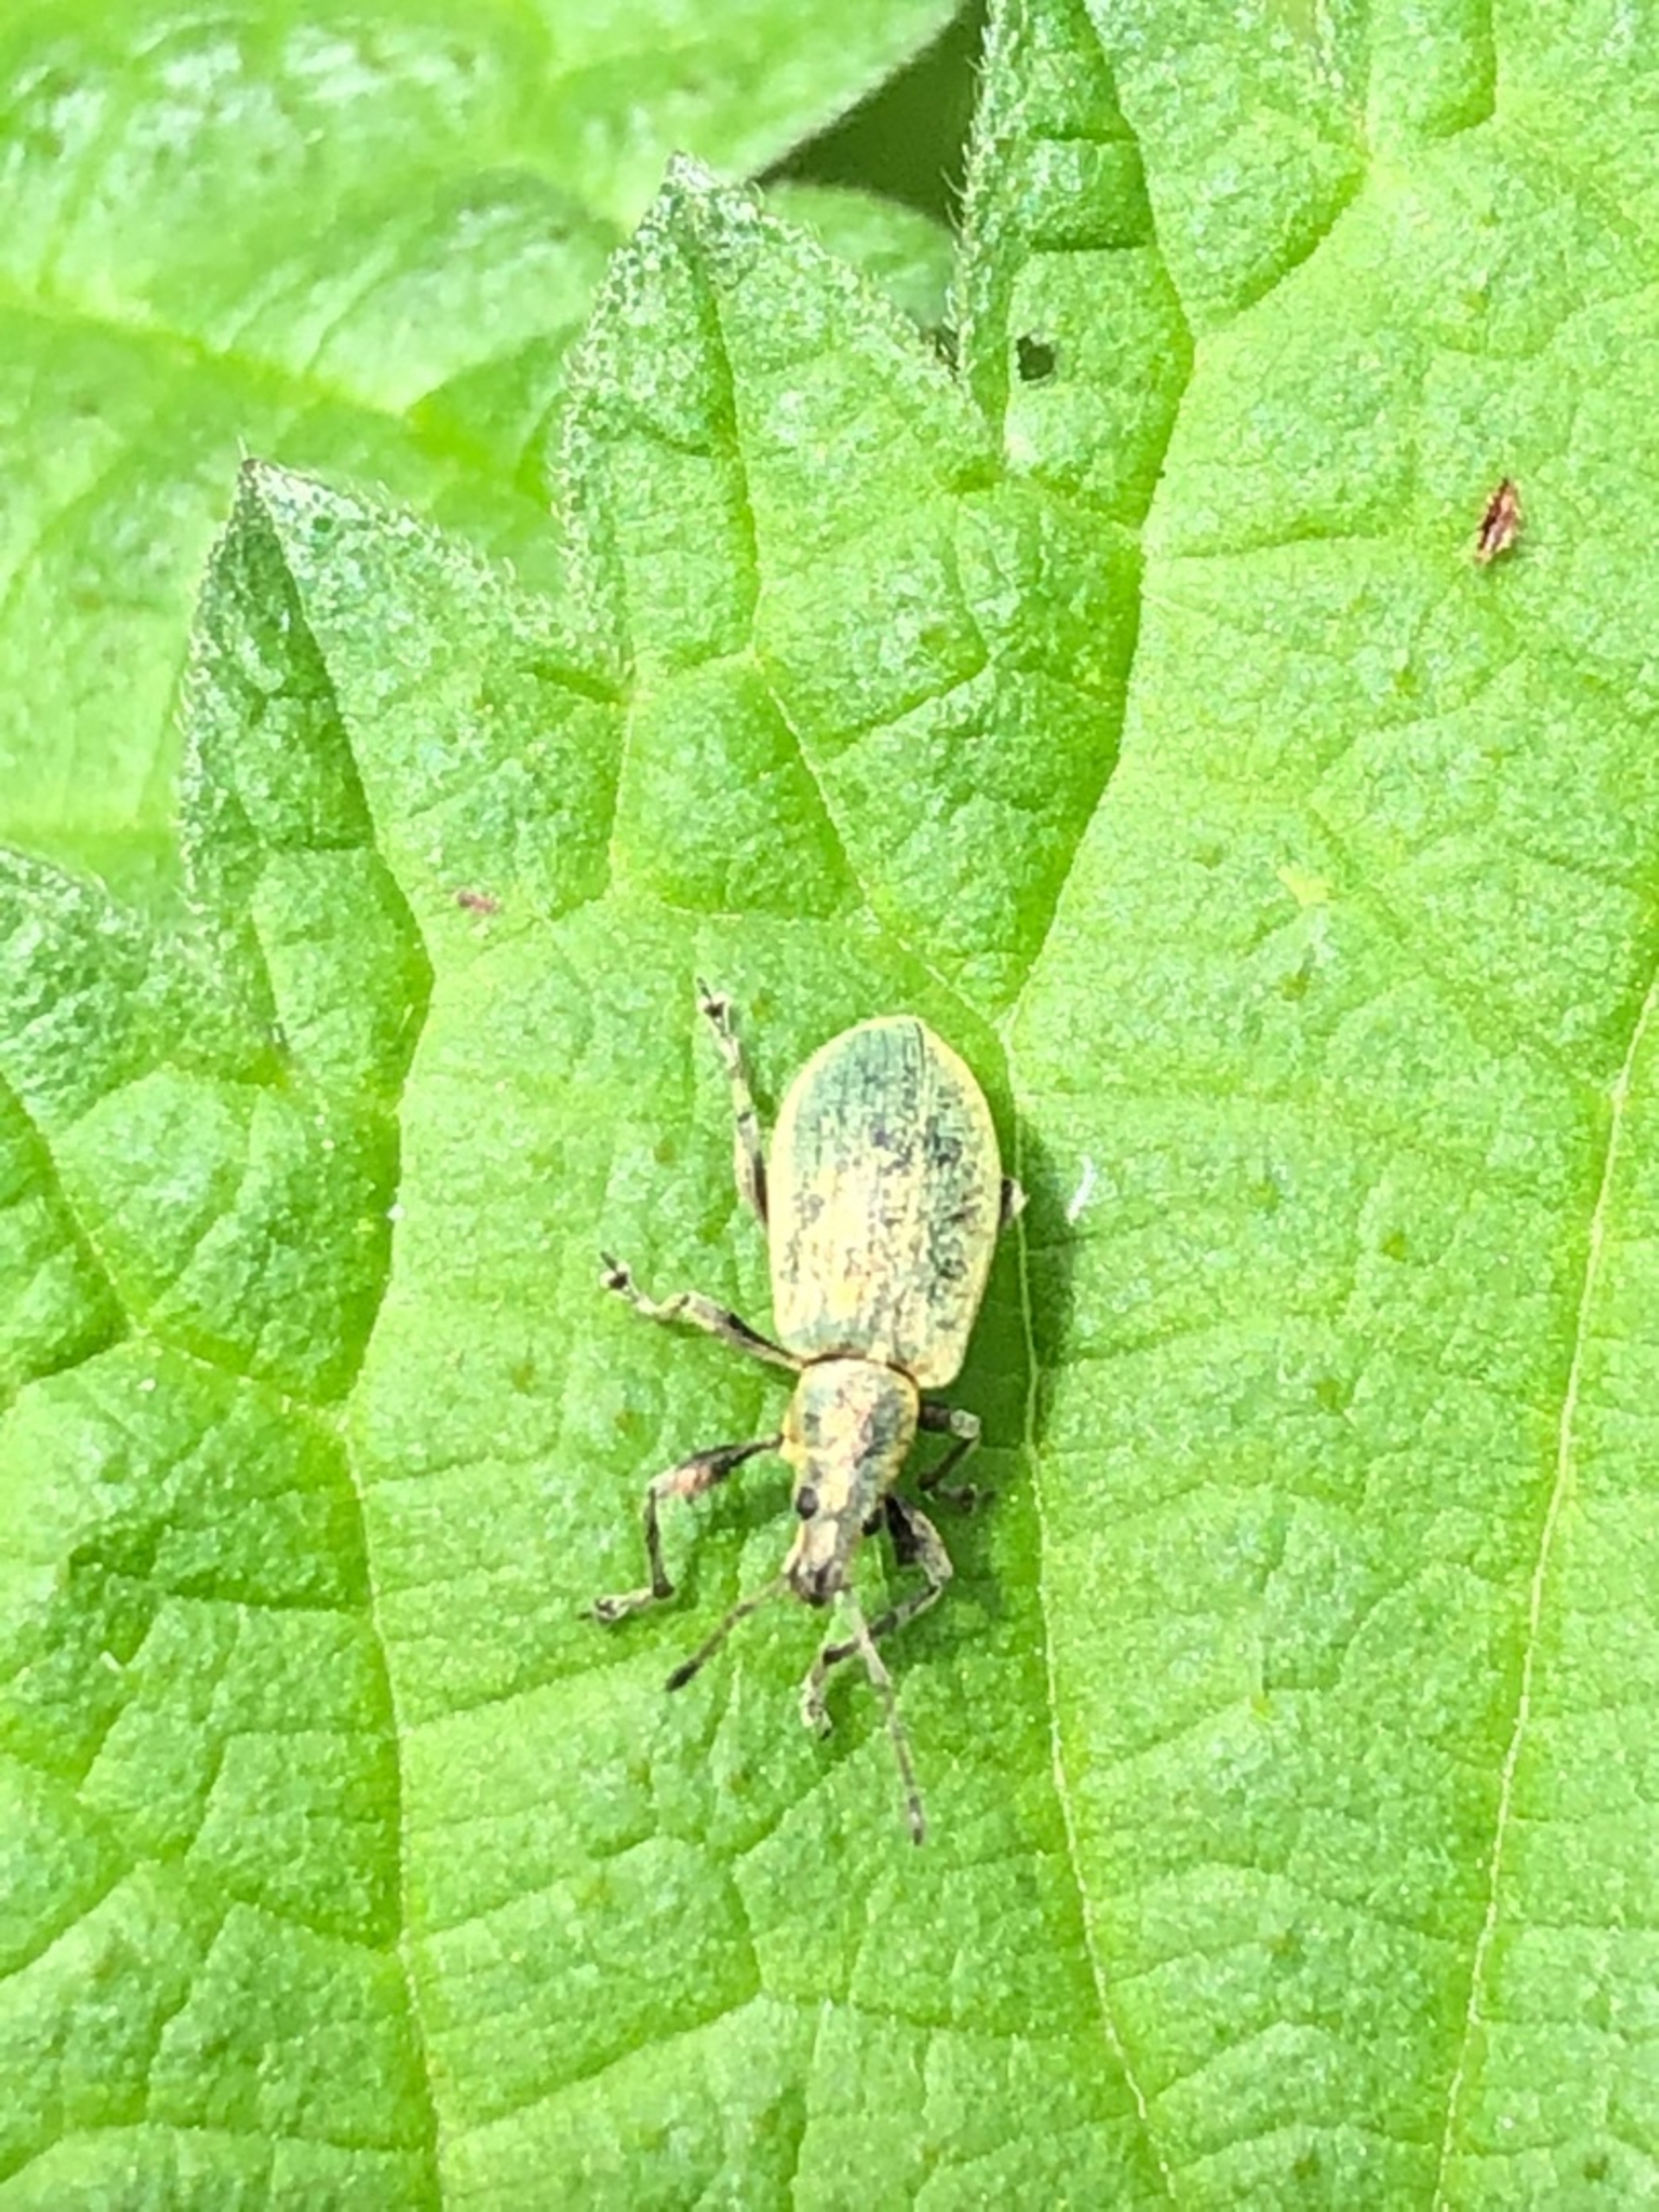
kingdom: Animalia
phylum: Arthropoda
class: Insecta
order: Coleoptera
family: Curculionidae
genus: Phyllobius
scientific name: Phyllobius pomaceus
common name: Nældesnudebille
